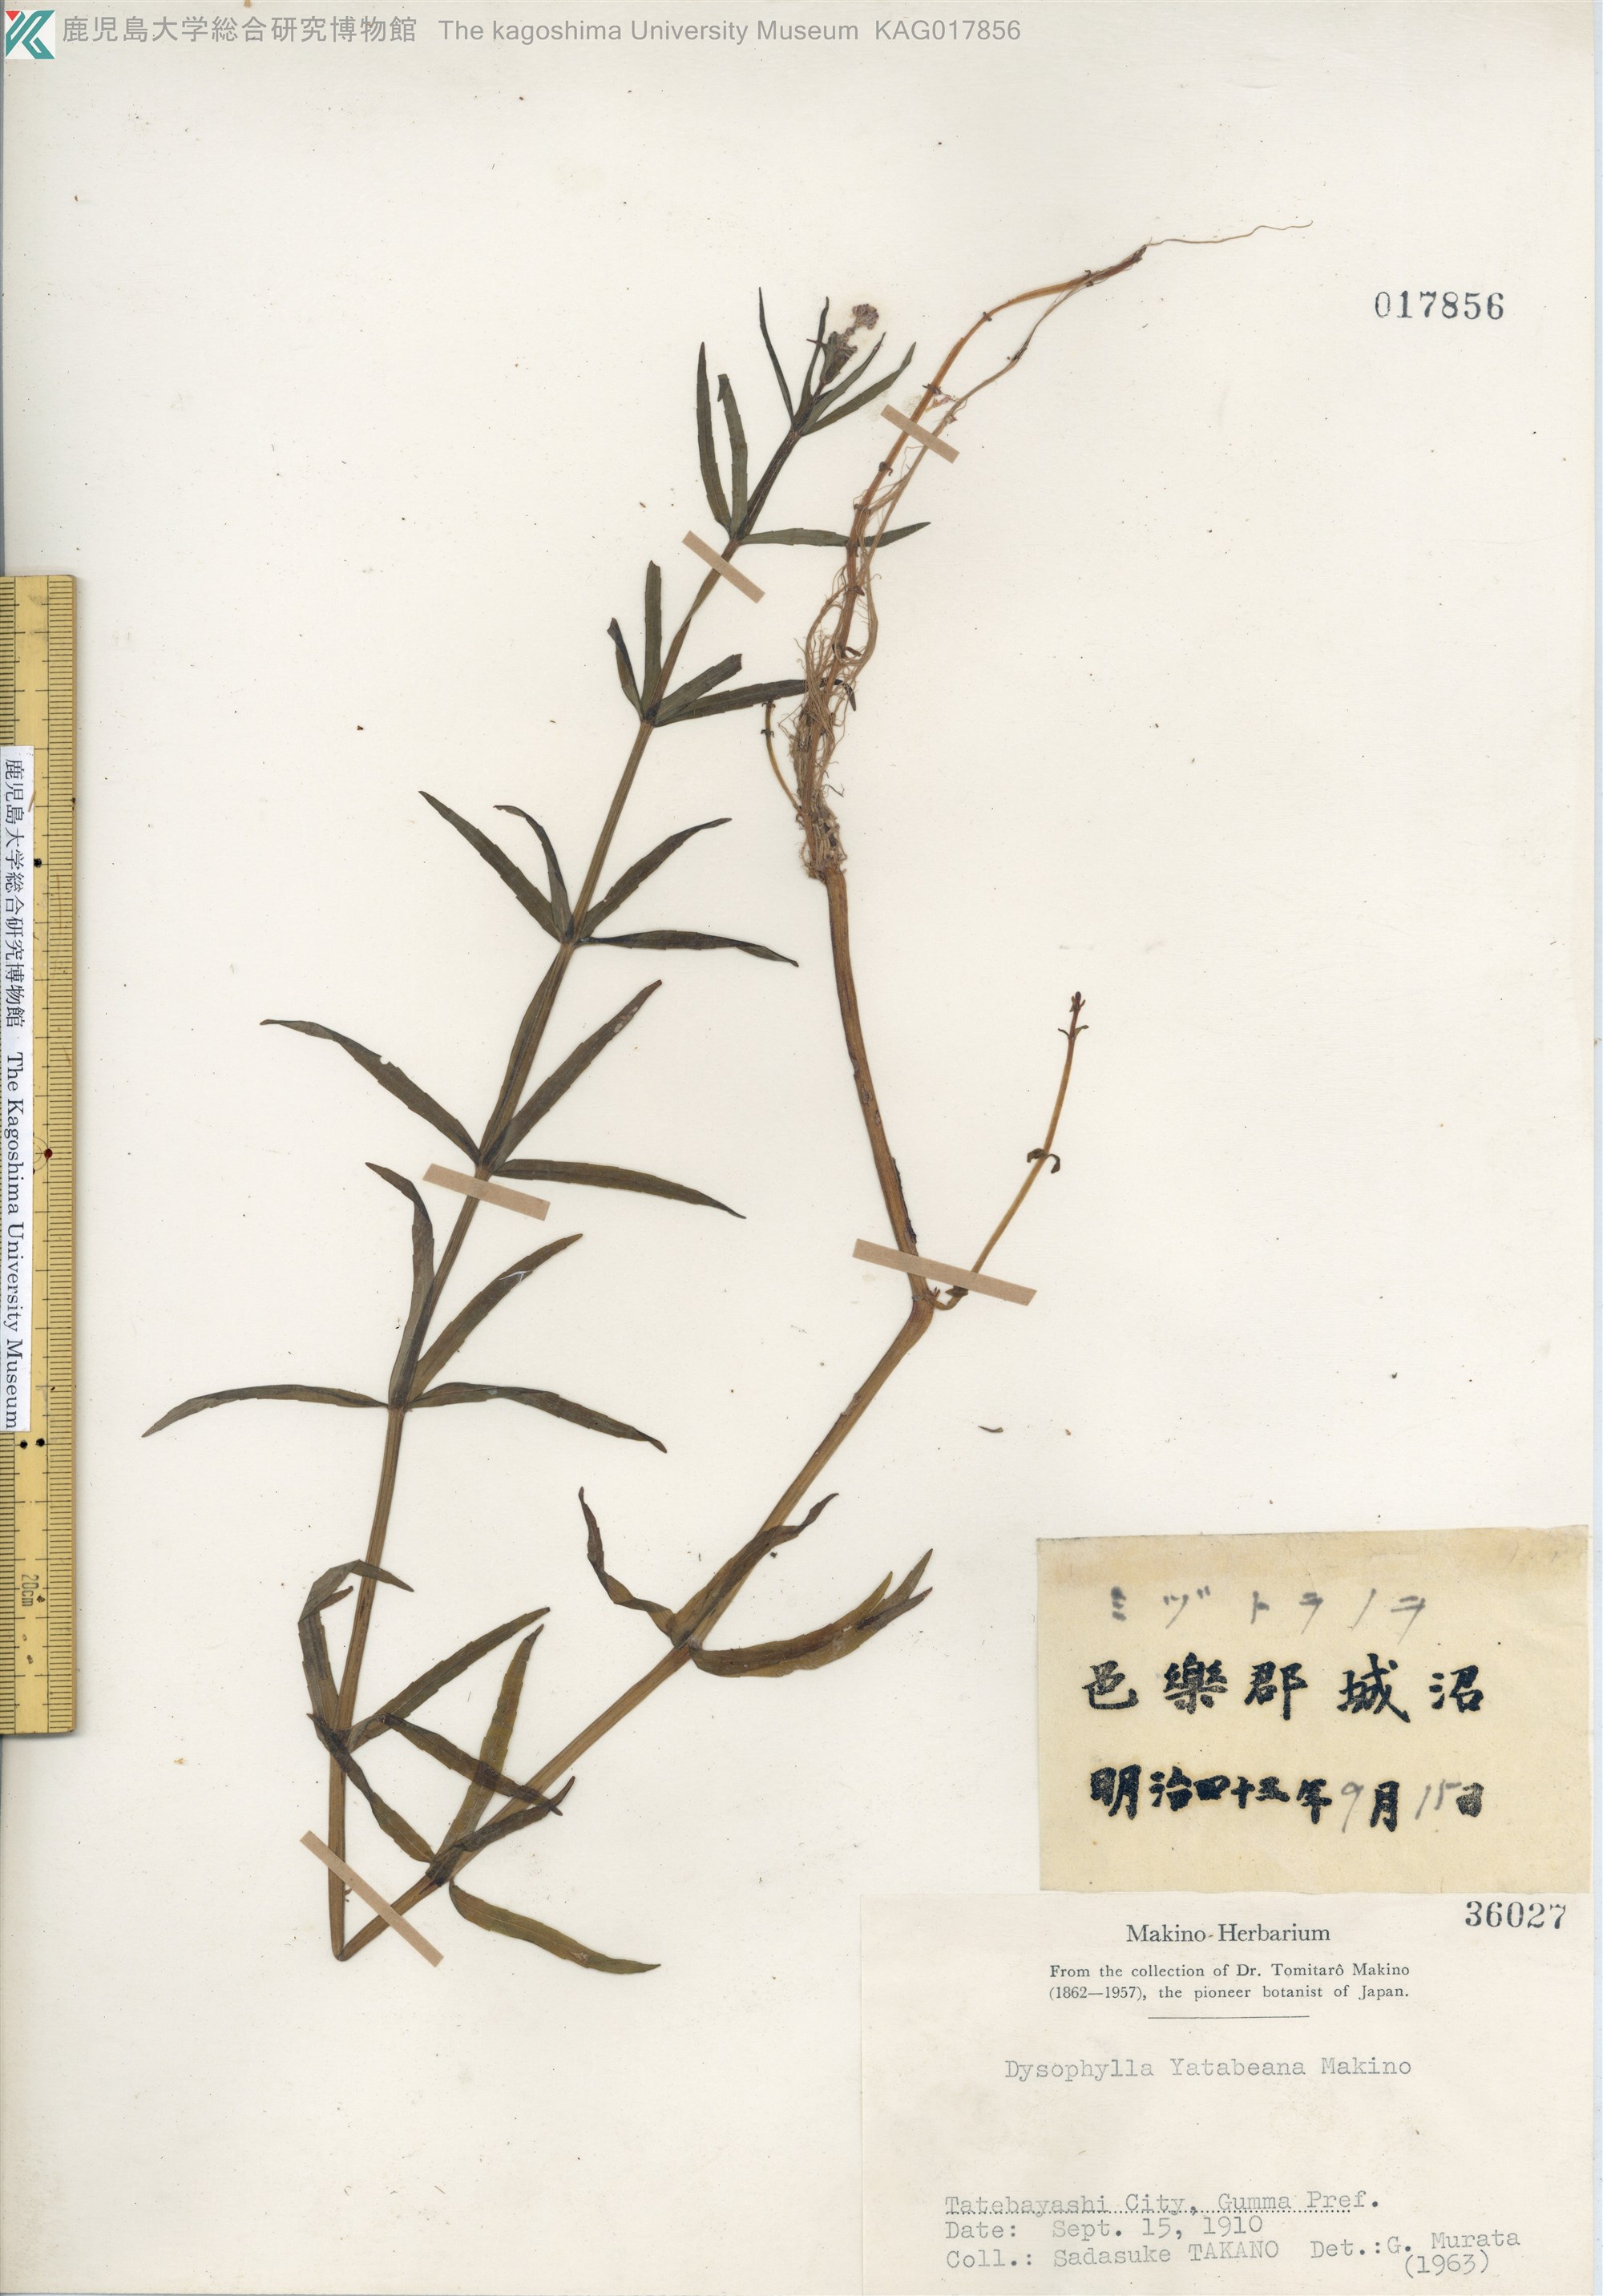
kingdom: Plantae
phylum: Tracheophyta
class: Magnoliopsida
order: Lamiales
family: Lamiaceae
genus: Pogostemon
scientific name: Pogostemon stellatus
